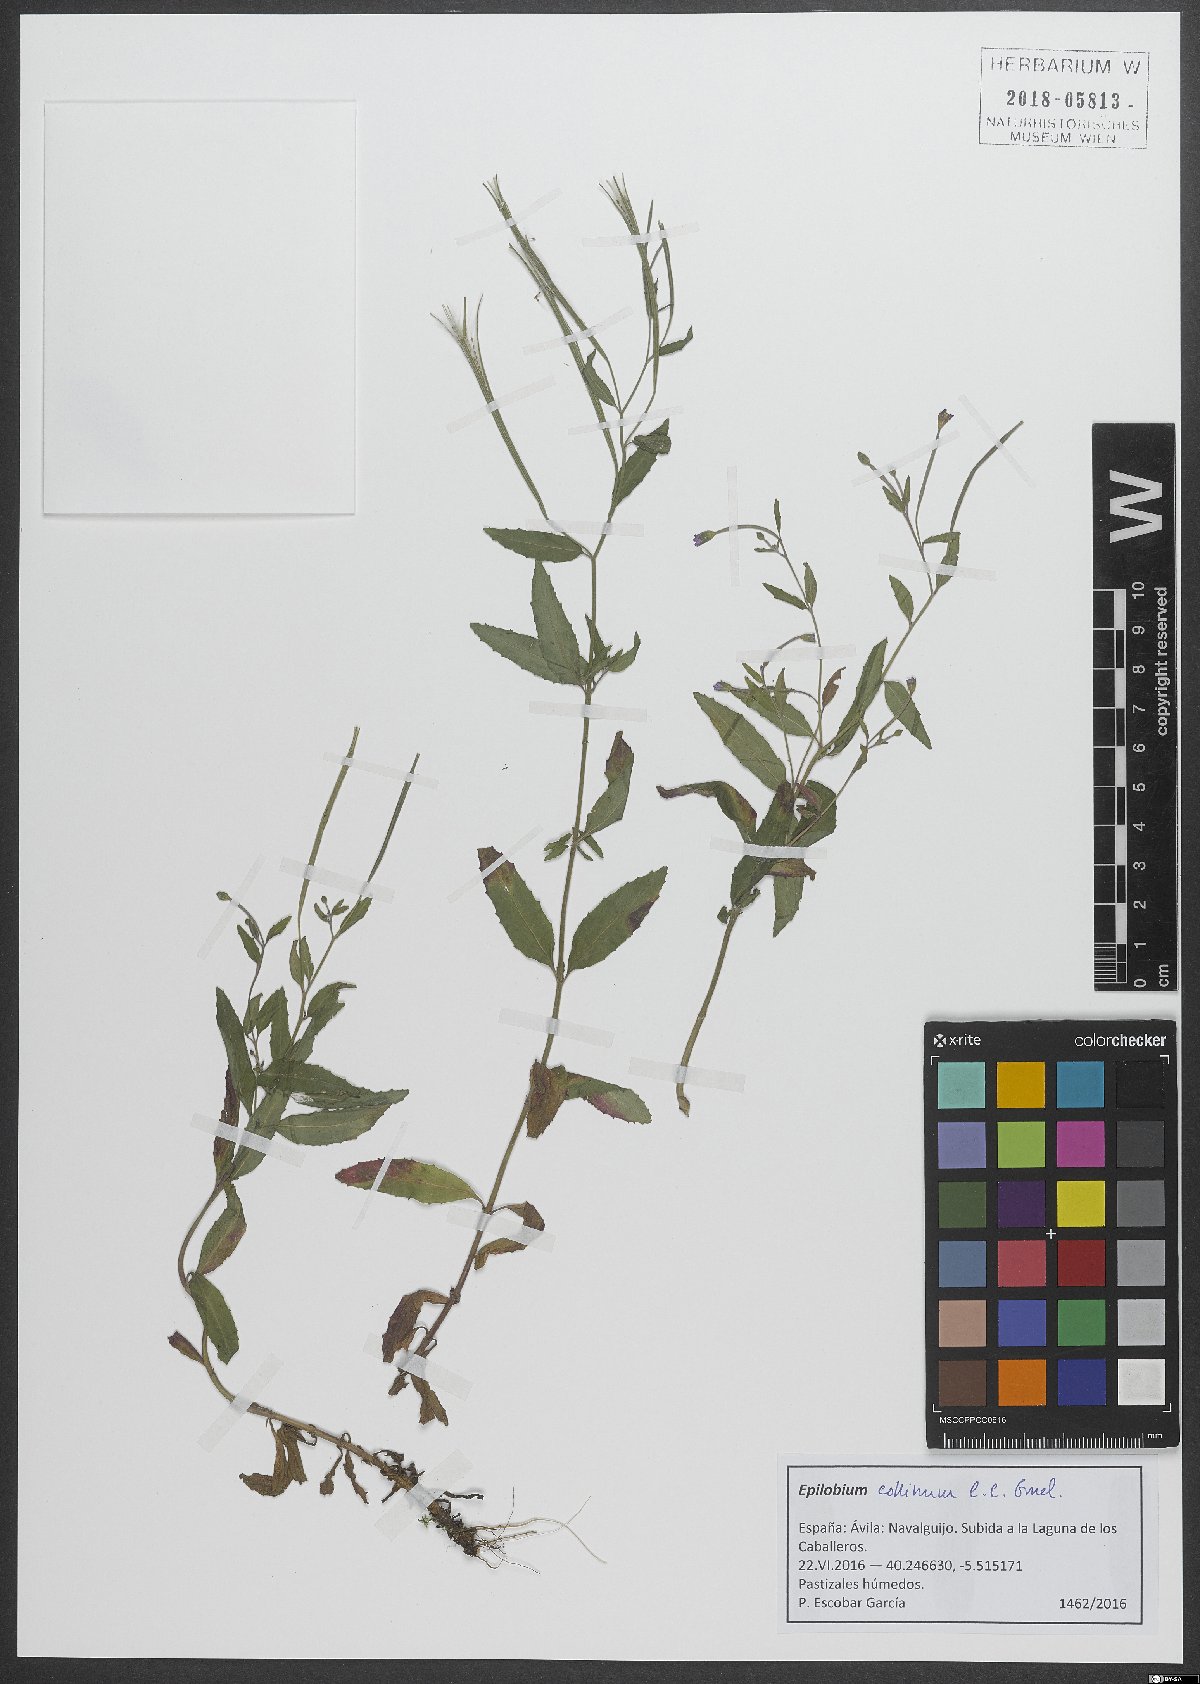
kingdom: Plantae
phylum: Tracheophyta
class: Magnoliopsida
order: Myrtales
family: Onagraceae
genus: Epilobium
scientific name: Epilobium collinum
